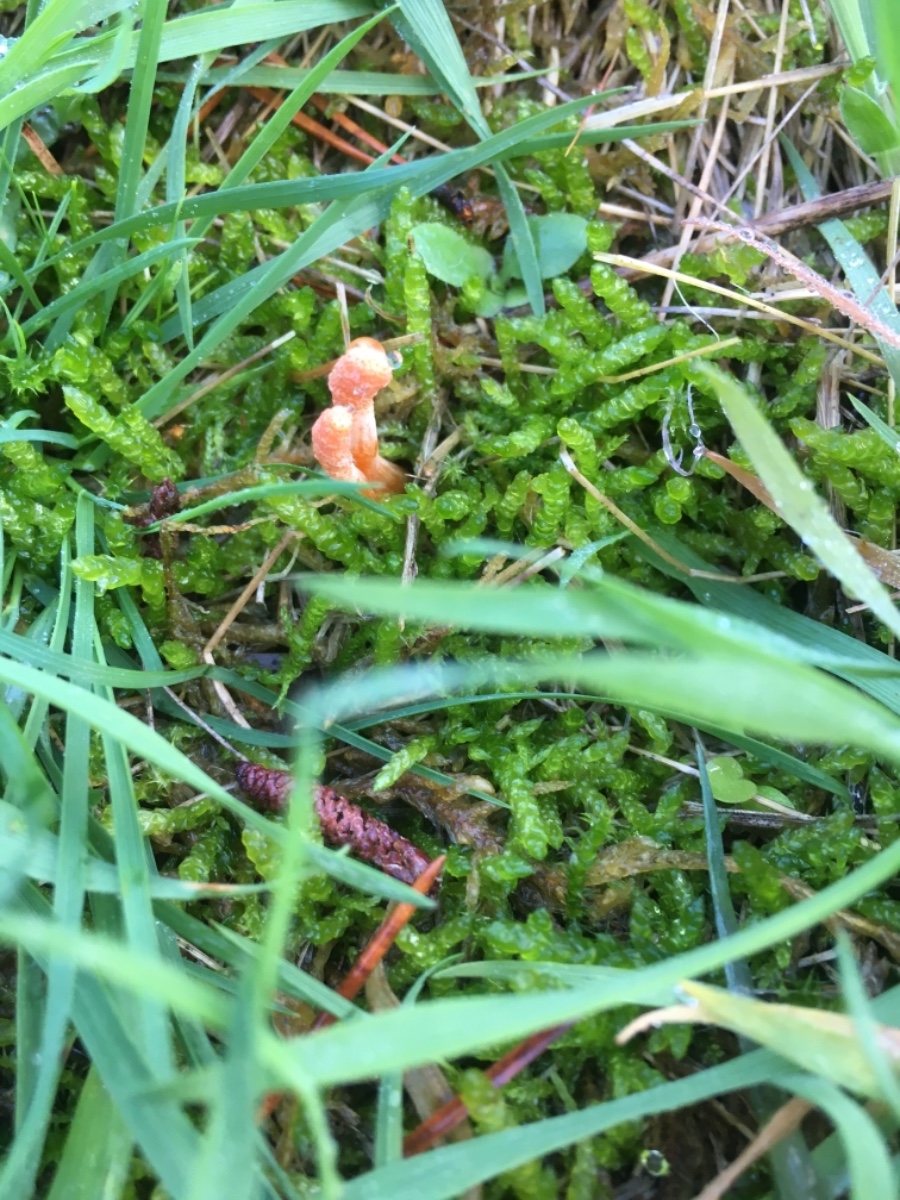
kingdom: Fungi
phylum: Ascomycota
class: Sordariomycetes
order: Hypocreales
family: Cordycipitaceae
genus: Cordyceps
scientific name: Cordyceps militaris
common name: puppe-snyltekølle
